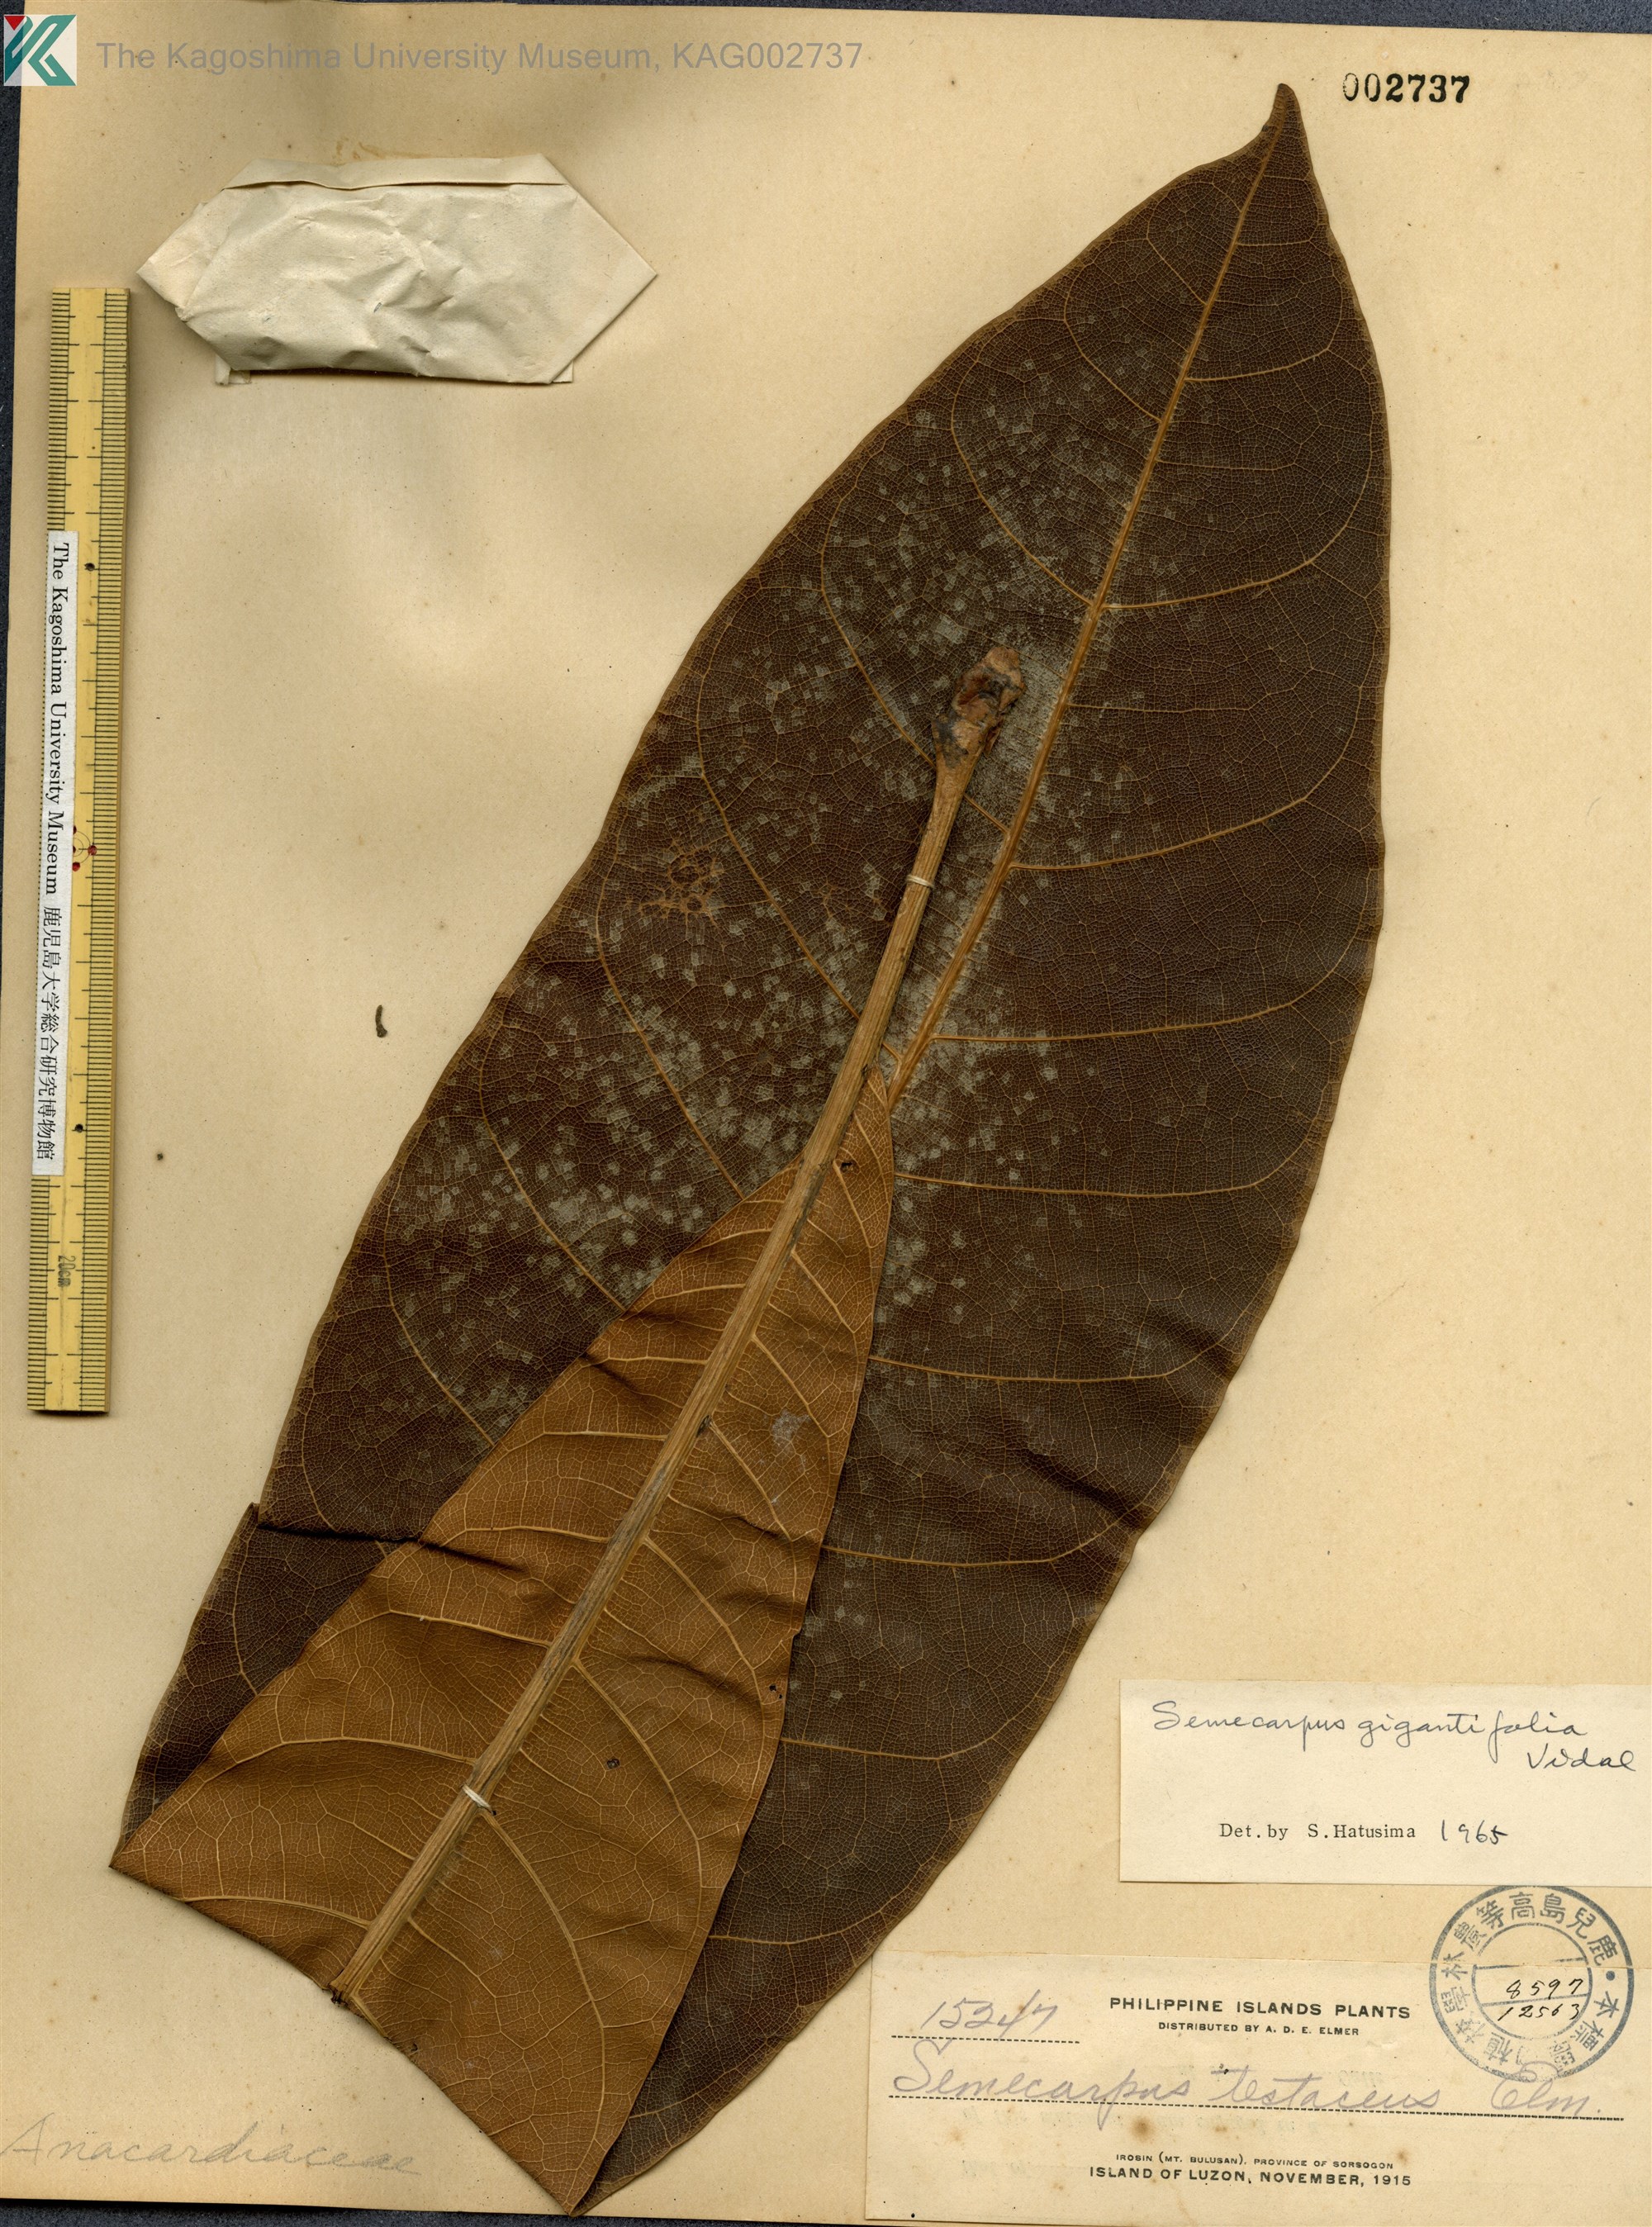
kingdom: Plantae
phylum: Tracheophyta
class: Magnoliopsida
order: Sapindales
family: Anacardiaceae
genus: Semecarpus
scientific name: Semecarpus longifolius
